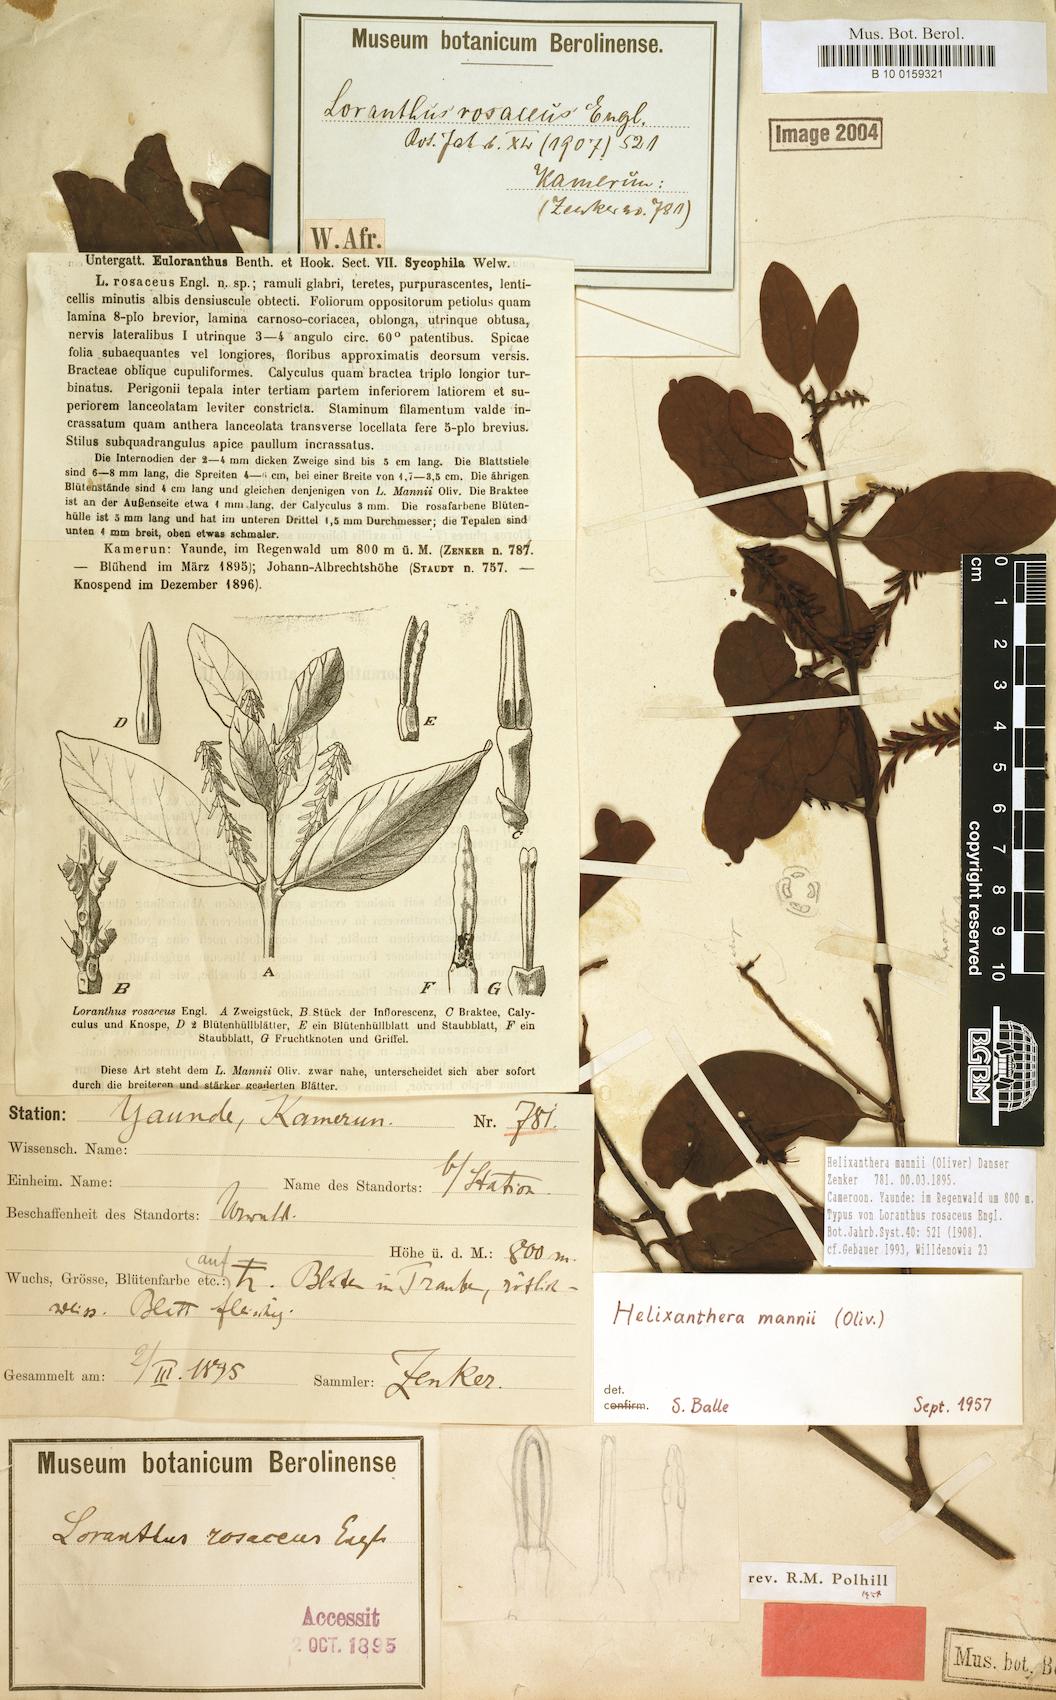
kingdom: Plantae
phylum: Tracheophyta
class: Magnoliopsida
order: Santalales
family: Loranthaceae
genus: Helixanthera
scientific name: Helixanthera mannii
